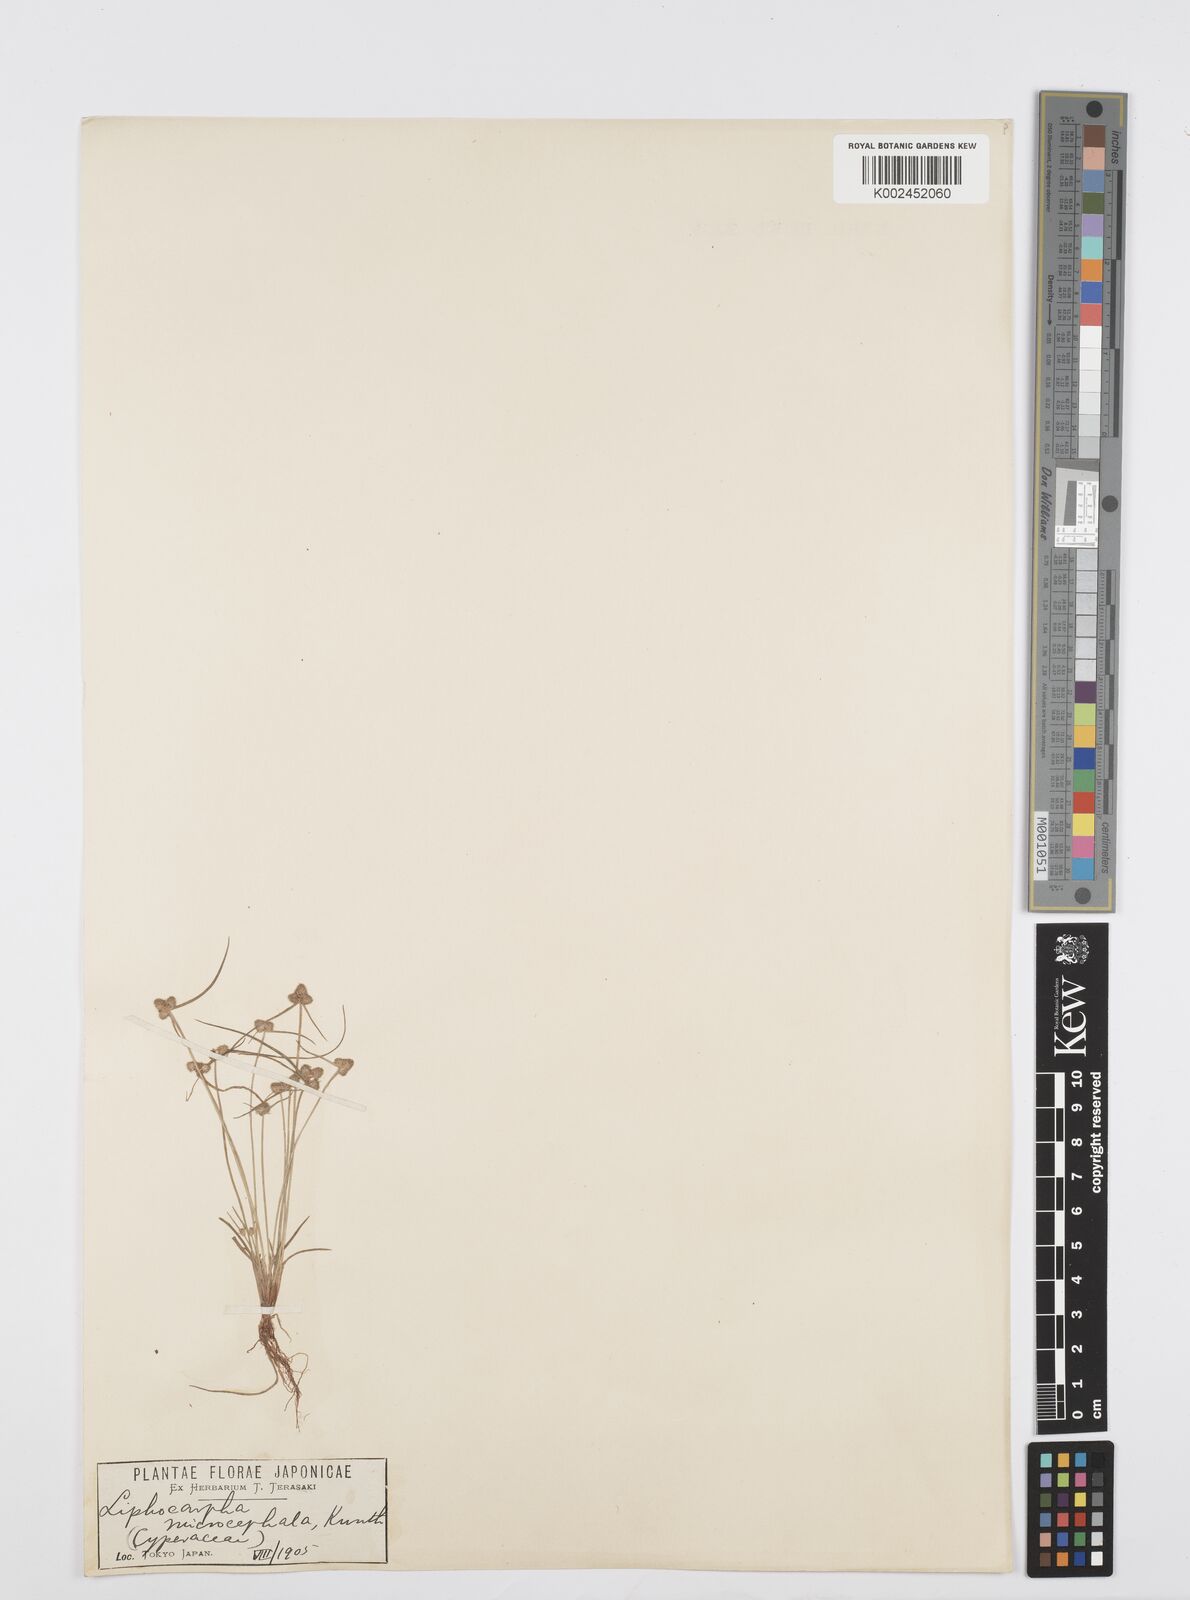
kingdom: Plantae
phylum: Tracheophyta
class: Liliopsida
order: Poales
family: Cyperaceae
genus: Cyperus
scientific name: Cyperus microcephalus
